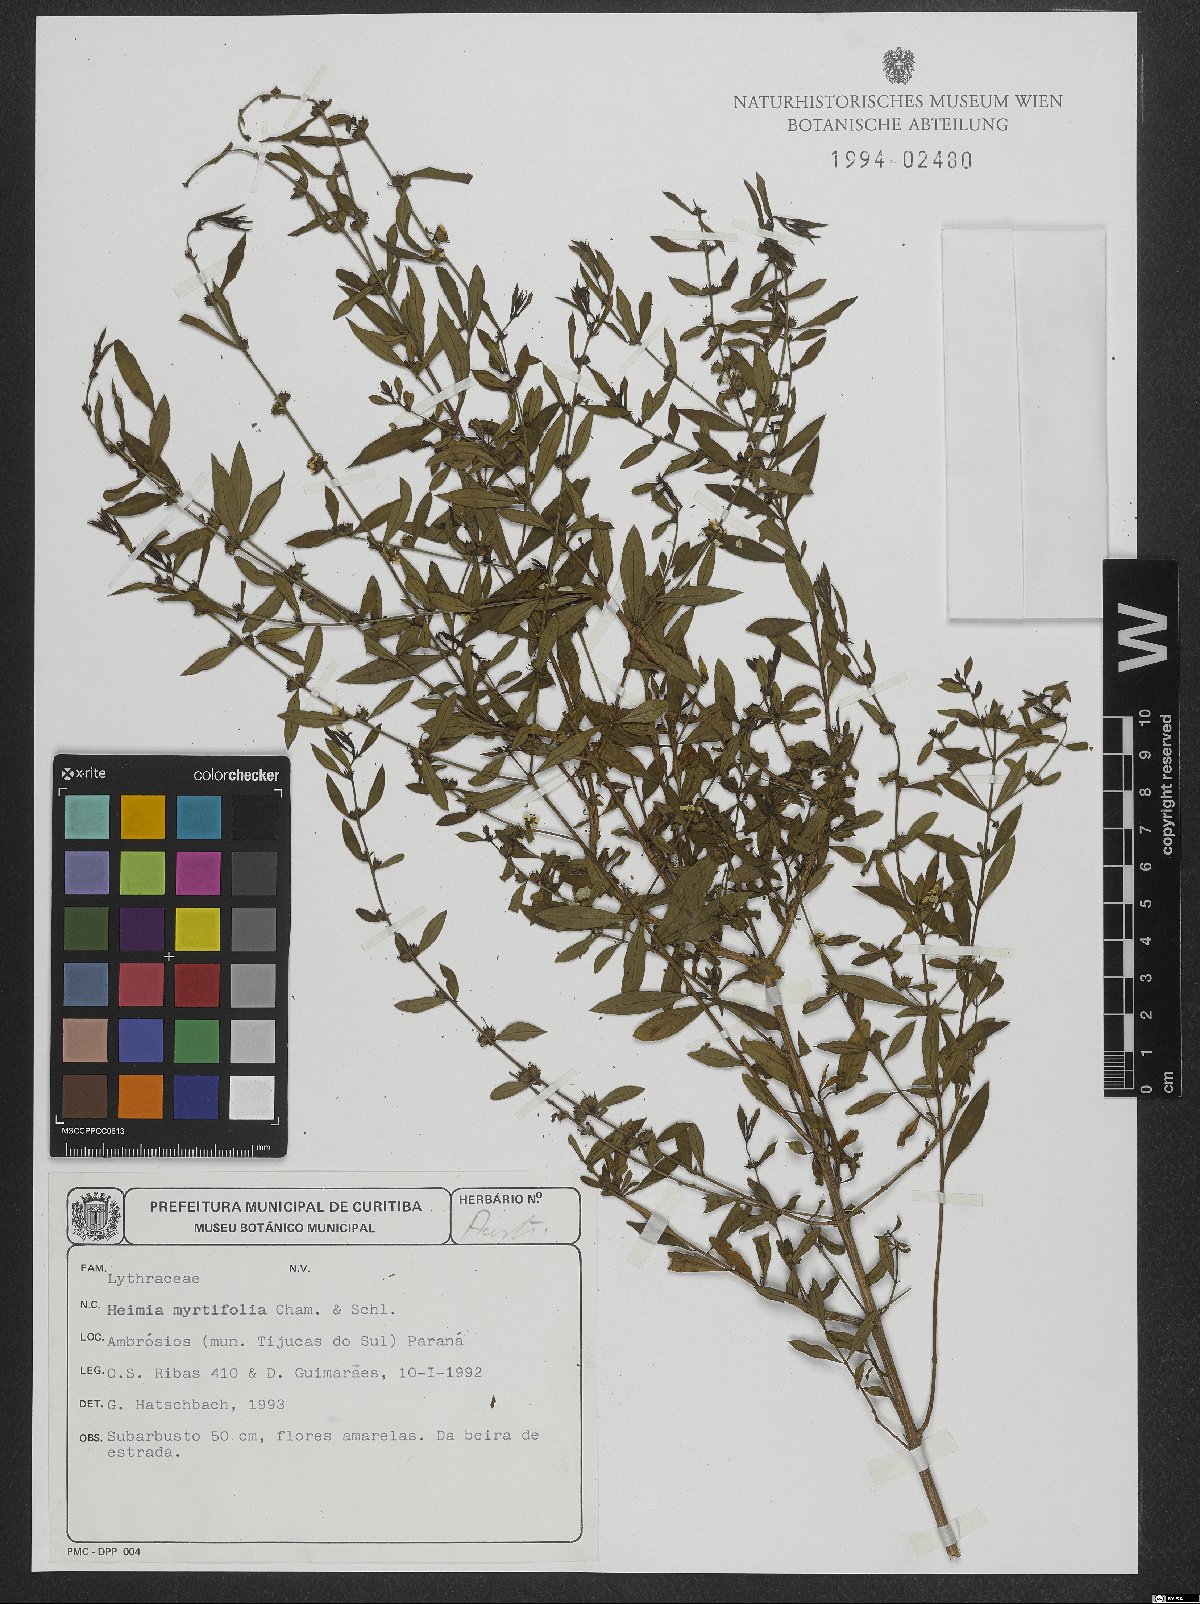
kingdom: Plantae
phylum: Tracheophyta
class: Magnoliopsida
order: Myrtales
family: Lythraceae
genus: Heimia
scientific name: Heimia apetala
